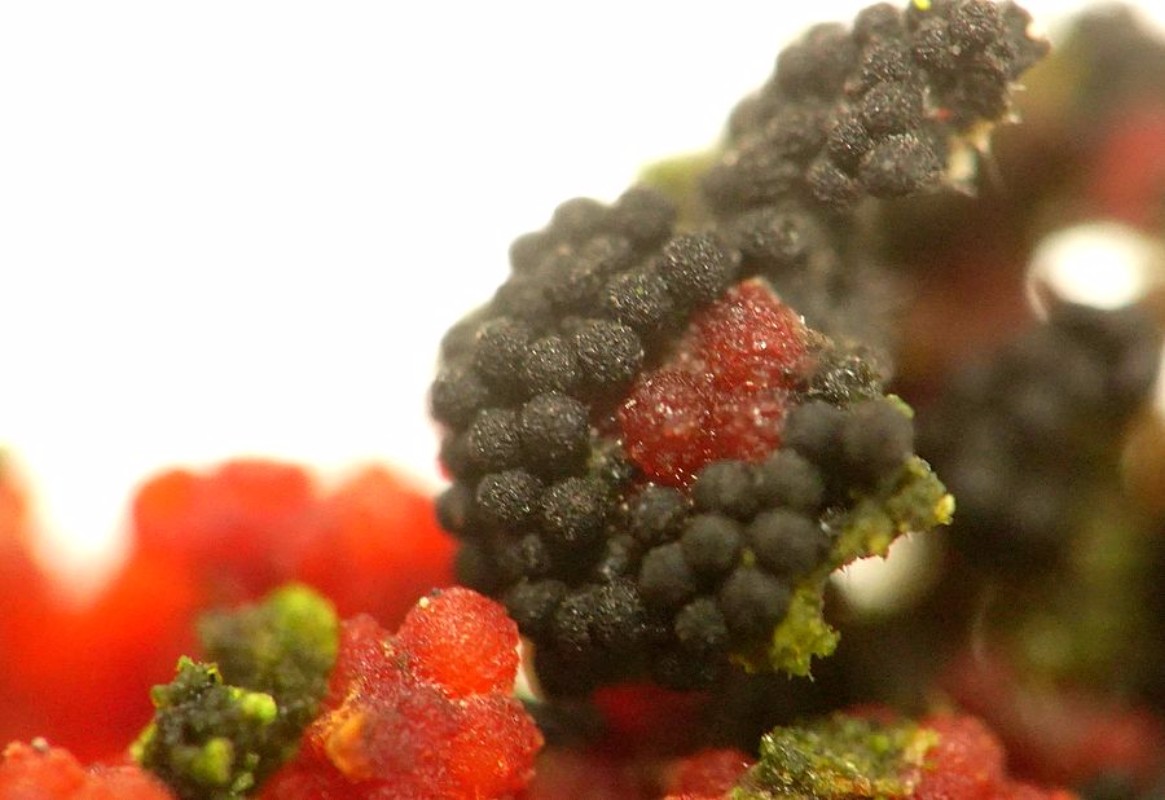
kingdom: Fungi
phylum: Ascomycota
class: Sordariomycetes
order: Coronophorales
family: Nitschkiaceae
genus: Nitschkia
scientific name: Nitschkia parasitans
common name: snyltende skålkerne
